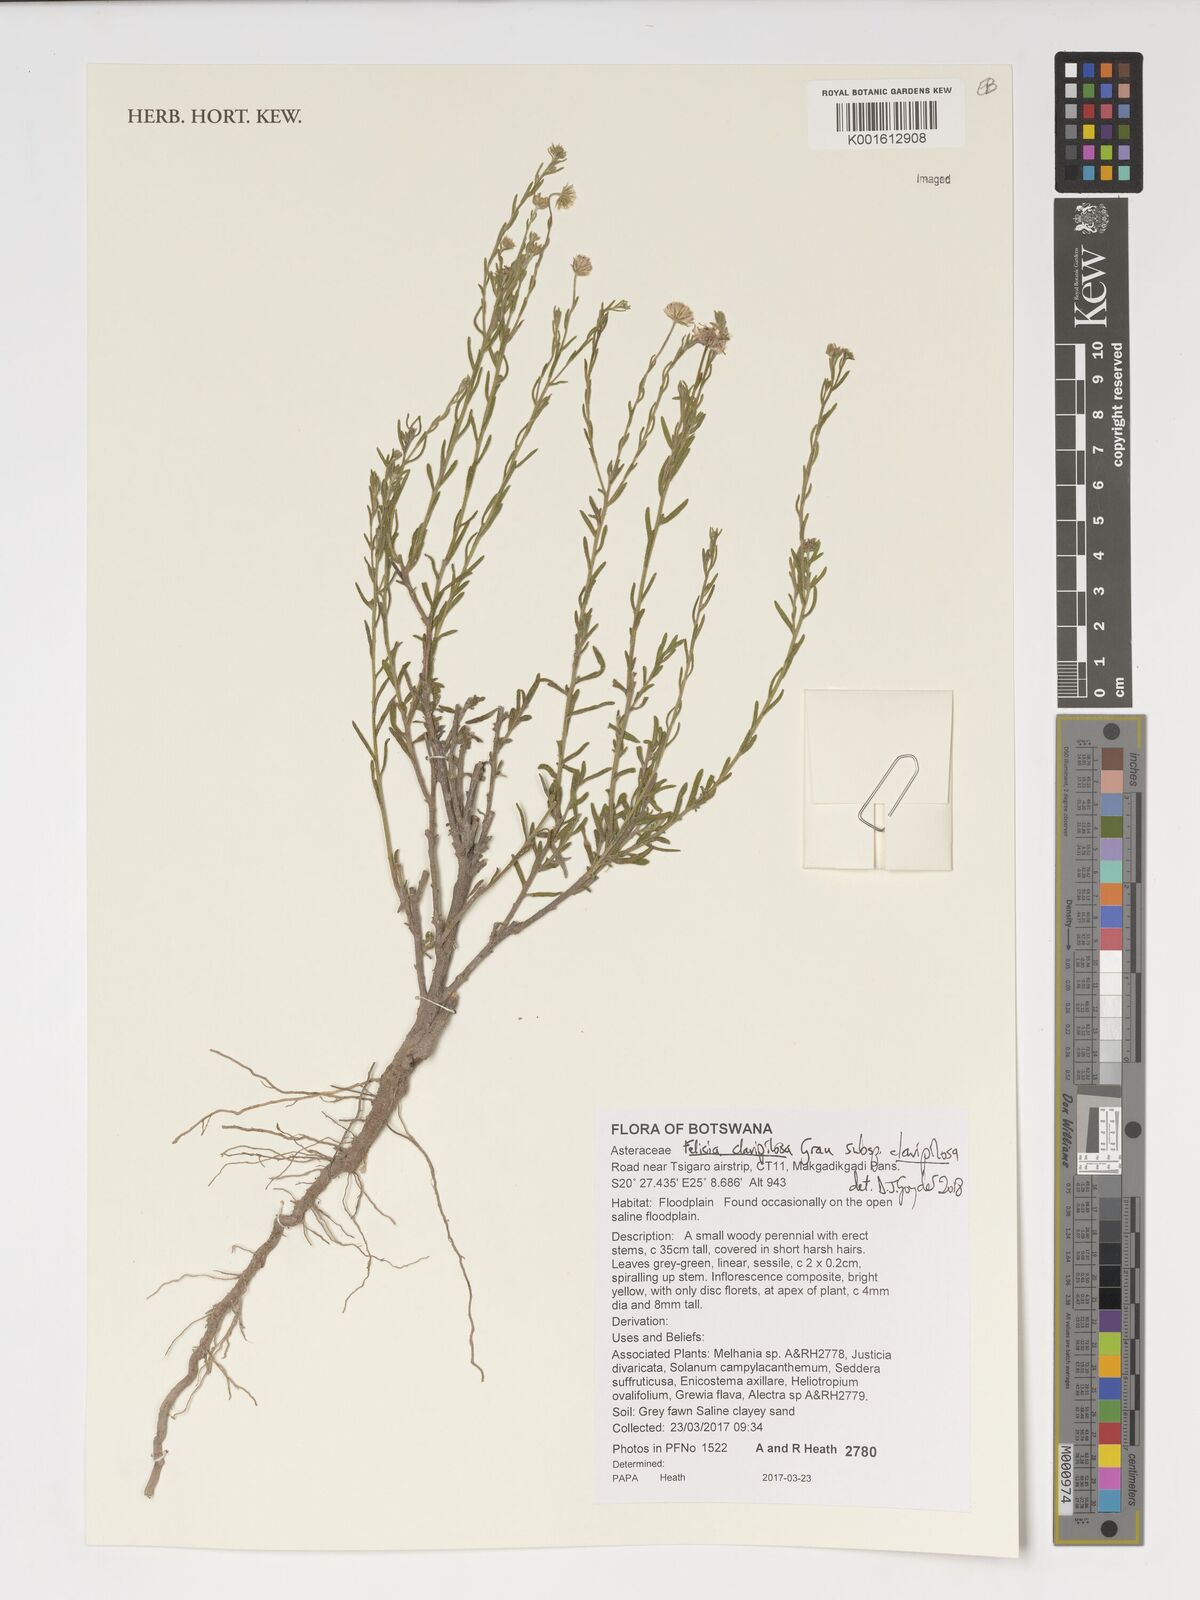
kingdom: Plantae
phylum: Tracheophyta
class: Magnoliopsida
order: Asterales
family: Asteraceae
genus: Felicia
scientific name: Felicia clavipilosa
